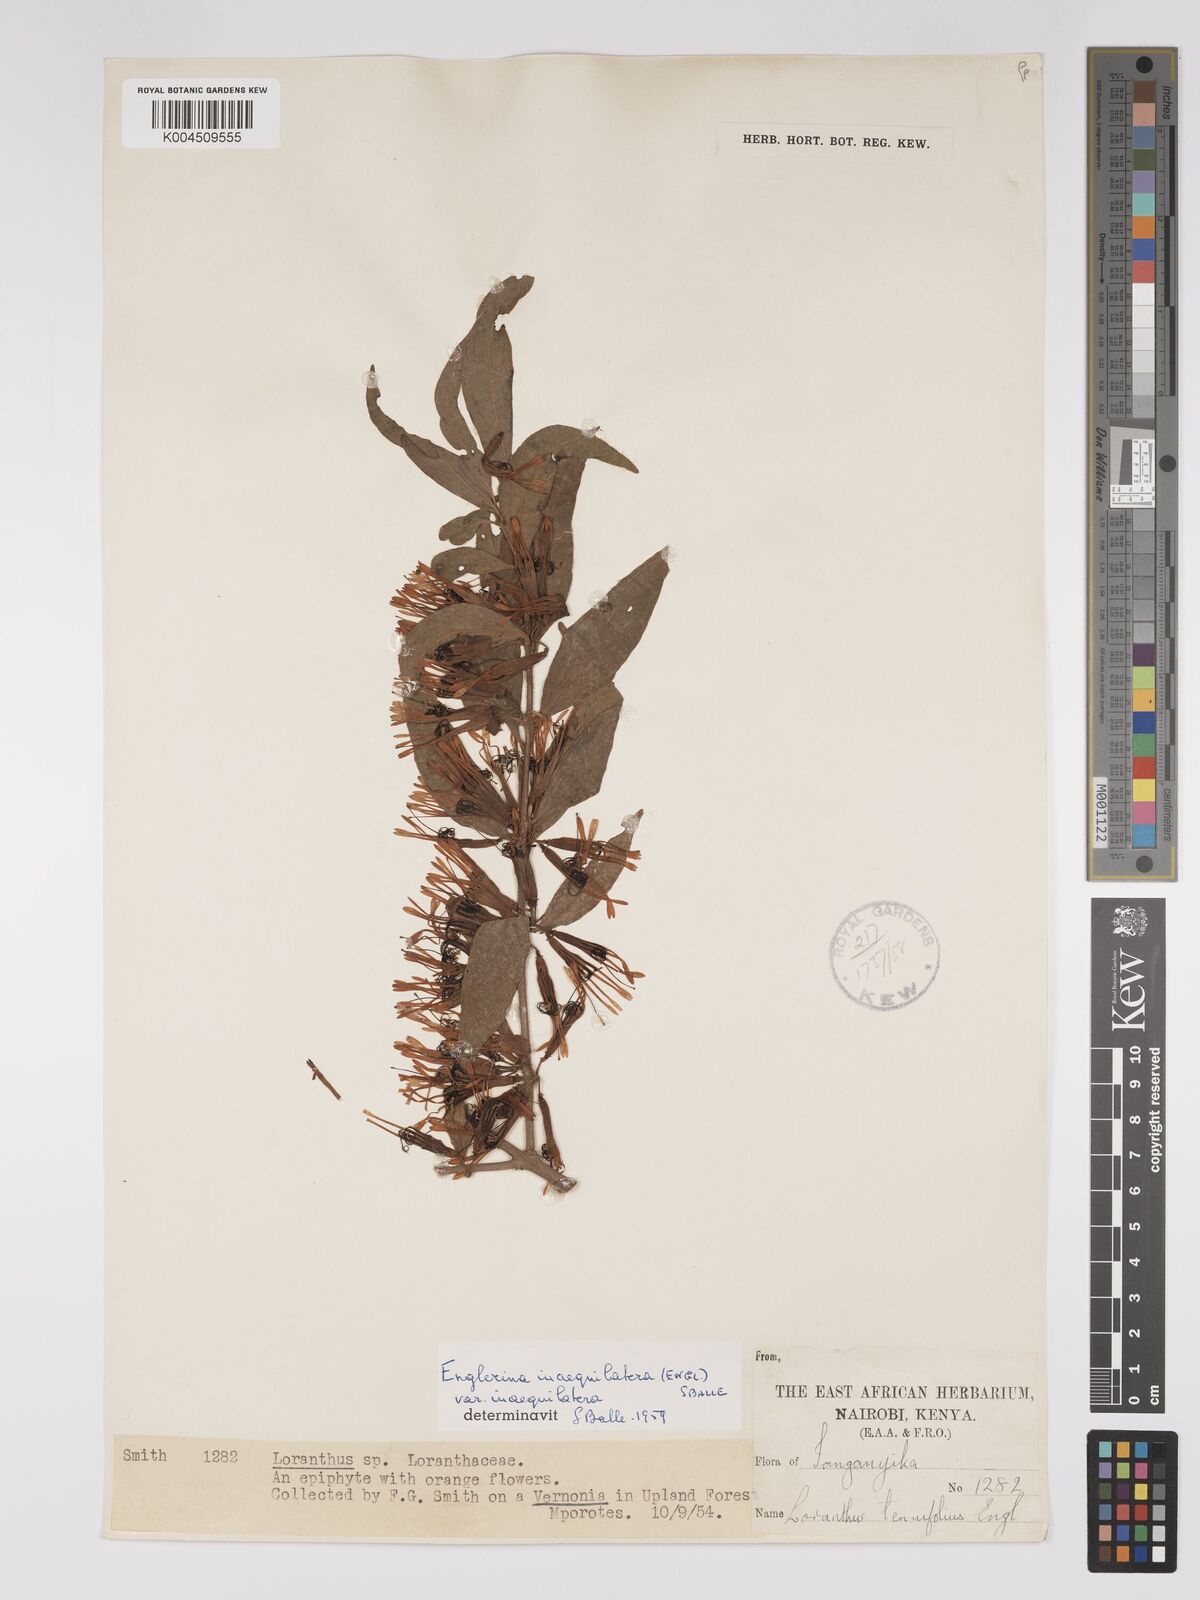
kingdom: Plantae
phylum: Tracheophyta
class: Magnoliopsida
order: Santalales
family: Loranthaceae
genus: Englerina
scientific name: Englerina inaequilatera
